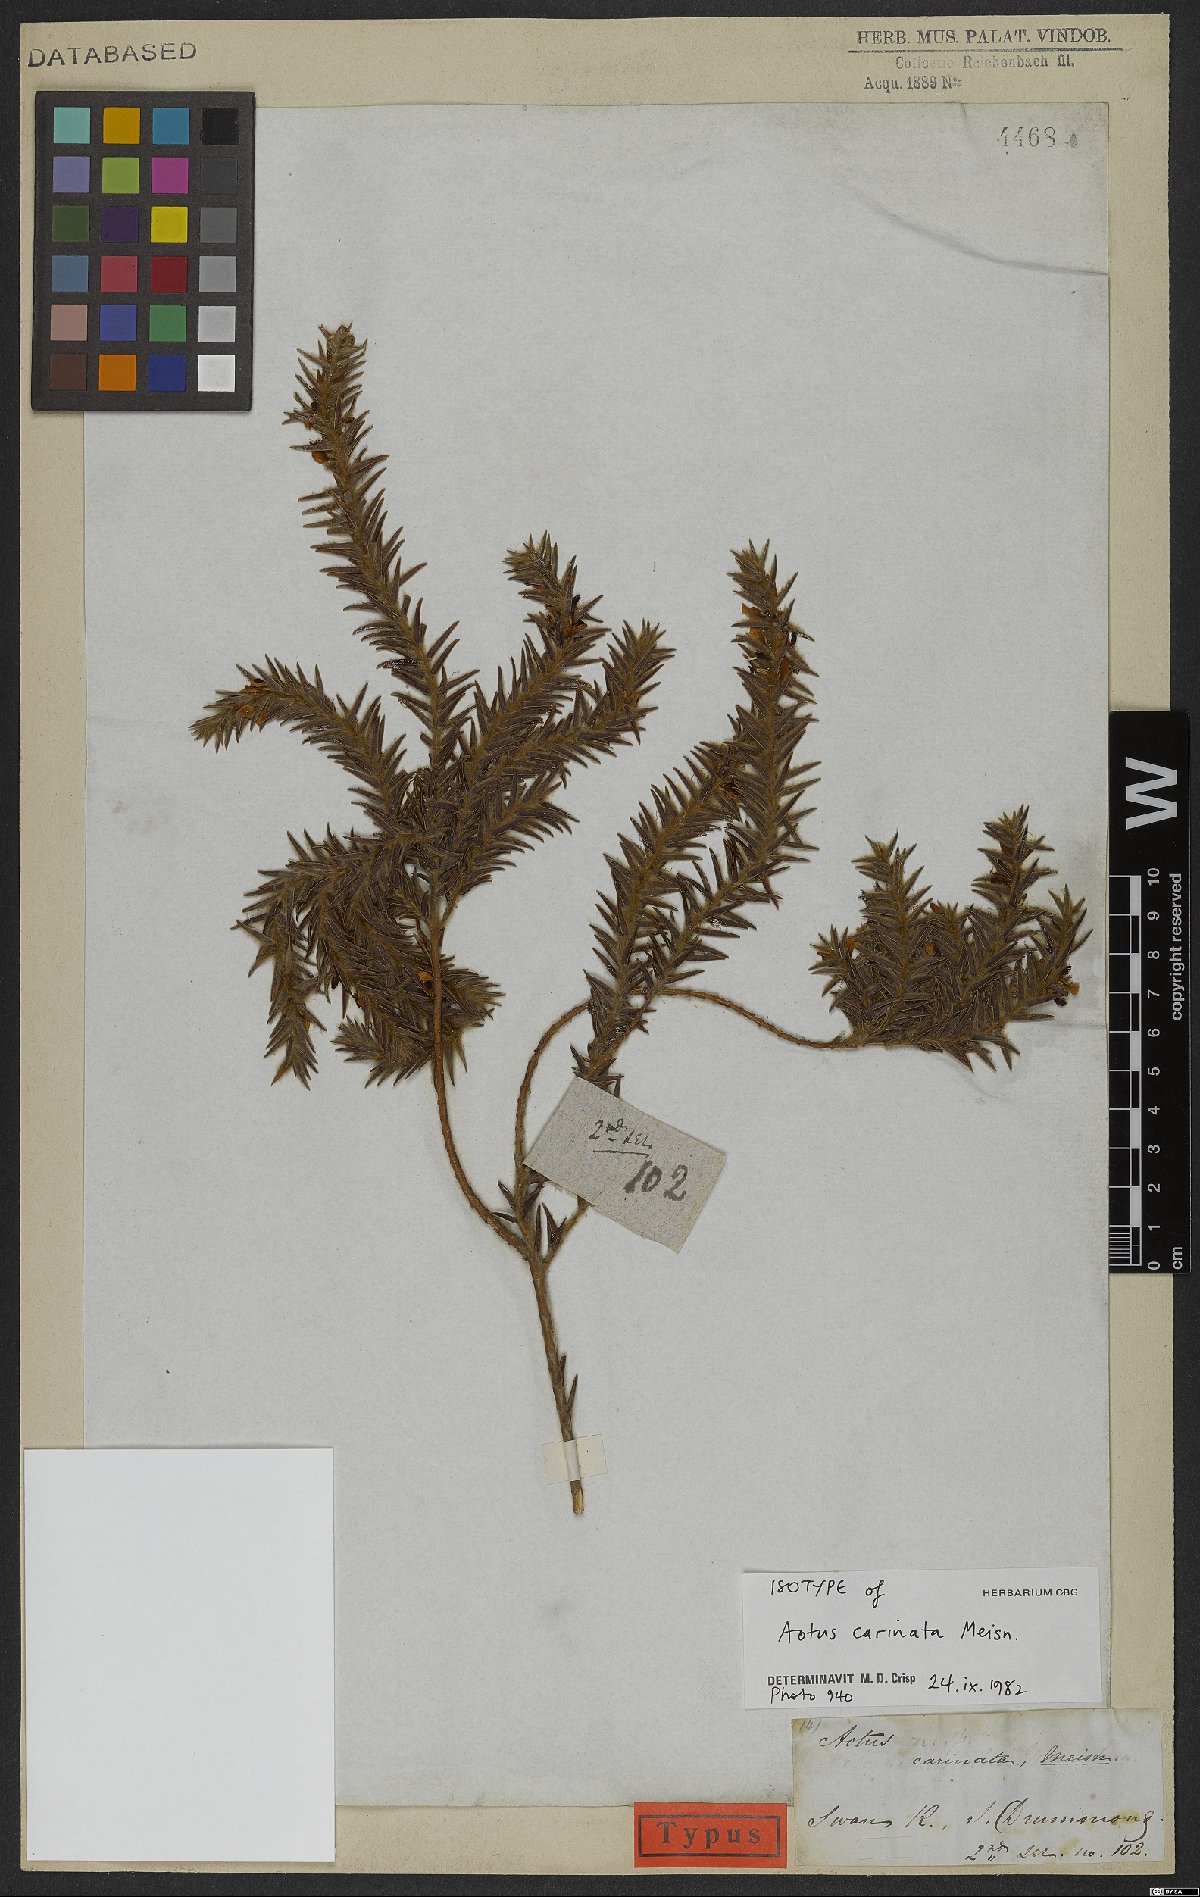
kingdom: Plantae
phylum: Tracheophyta
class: Magnoliopsida
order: Fabales
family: Fabaceae
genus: Aotus
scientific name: Aotus carinata
